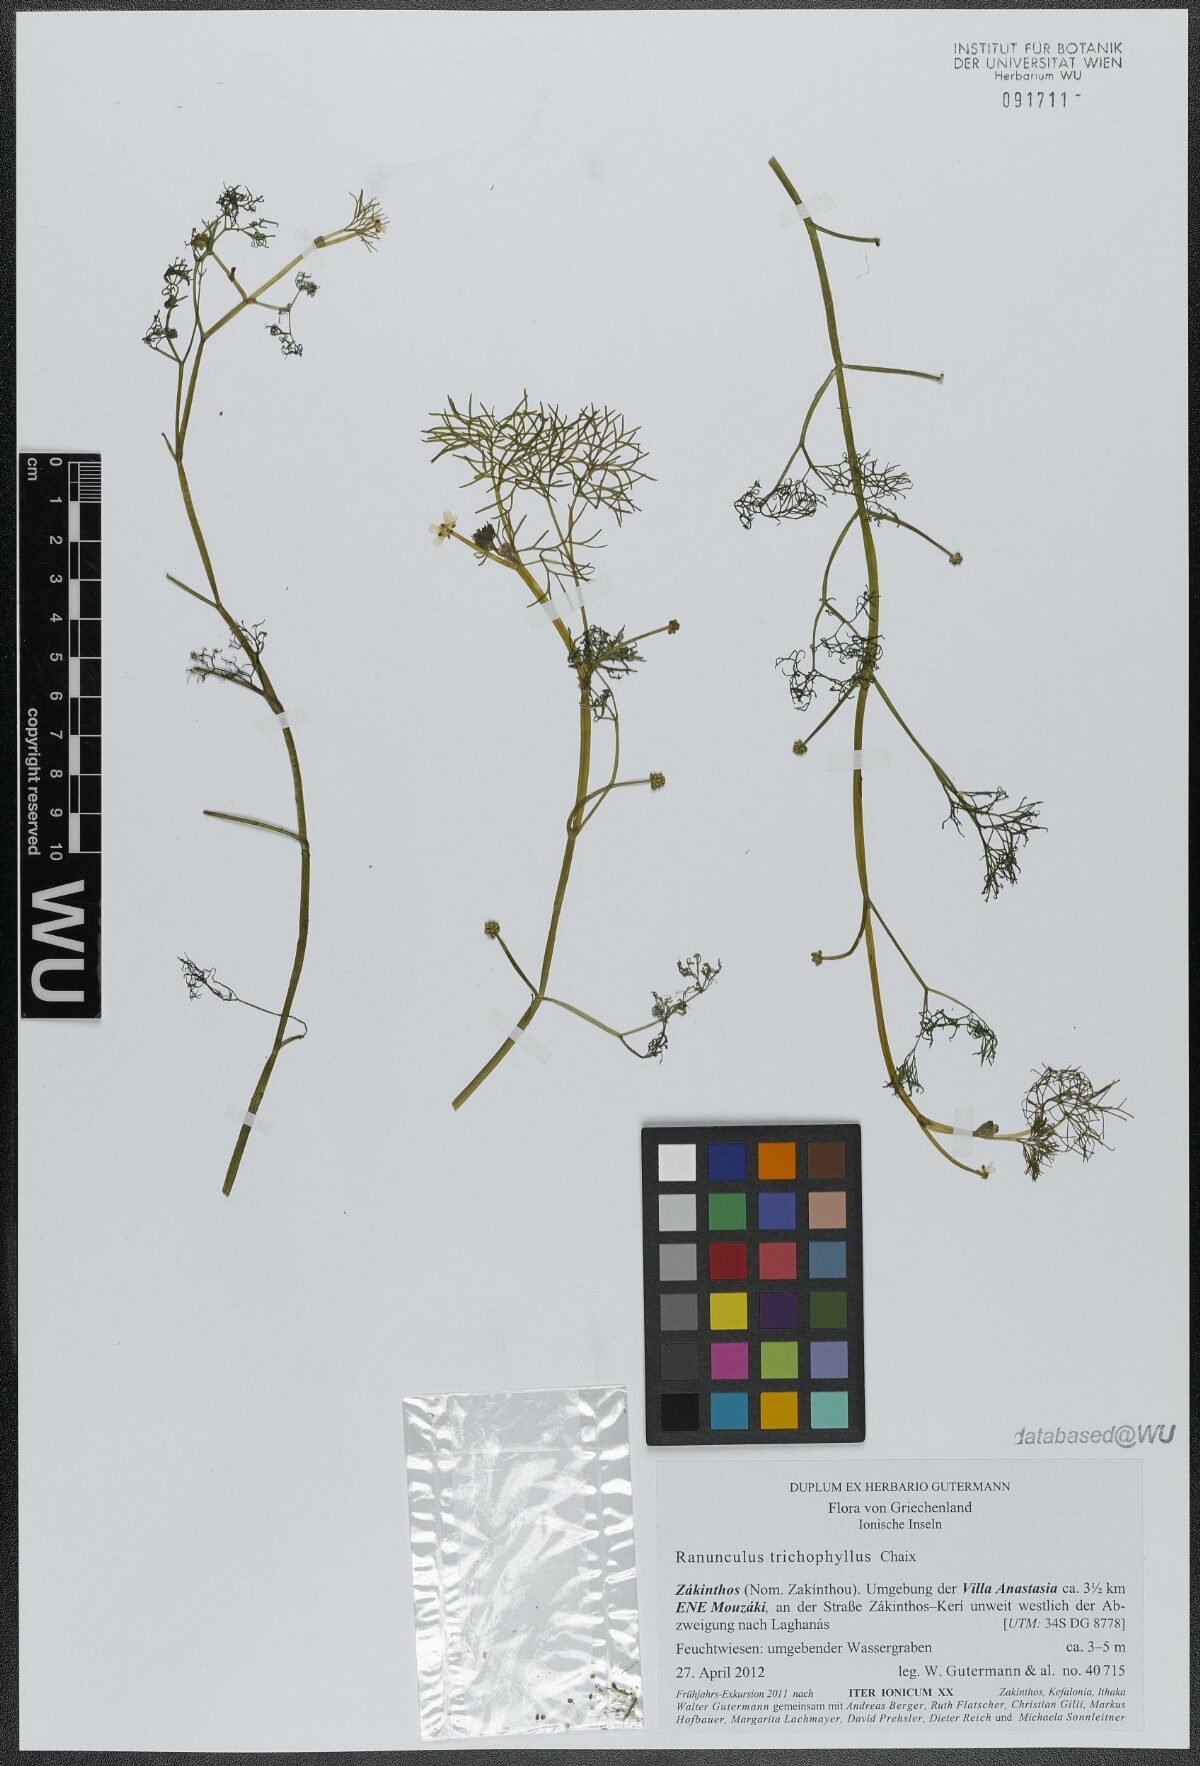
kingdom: Plantae
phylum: Tracheophyta
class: Magnoliopsida
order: Ranunculales
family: Ranunculaceae
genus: Ranunculus
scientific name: Ranunculus trichophyllus
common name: Thread-leaved water-crowfoot
